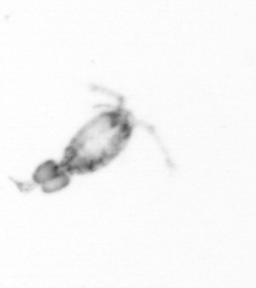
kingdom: Animalia
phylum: Arthropoda
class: Copepoda
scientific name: Copepoda
